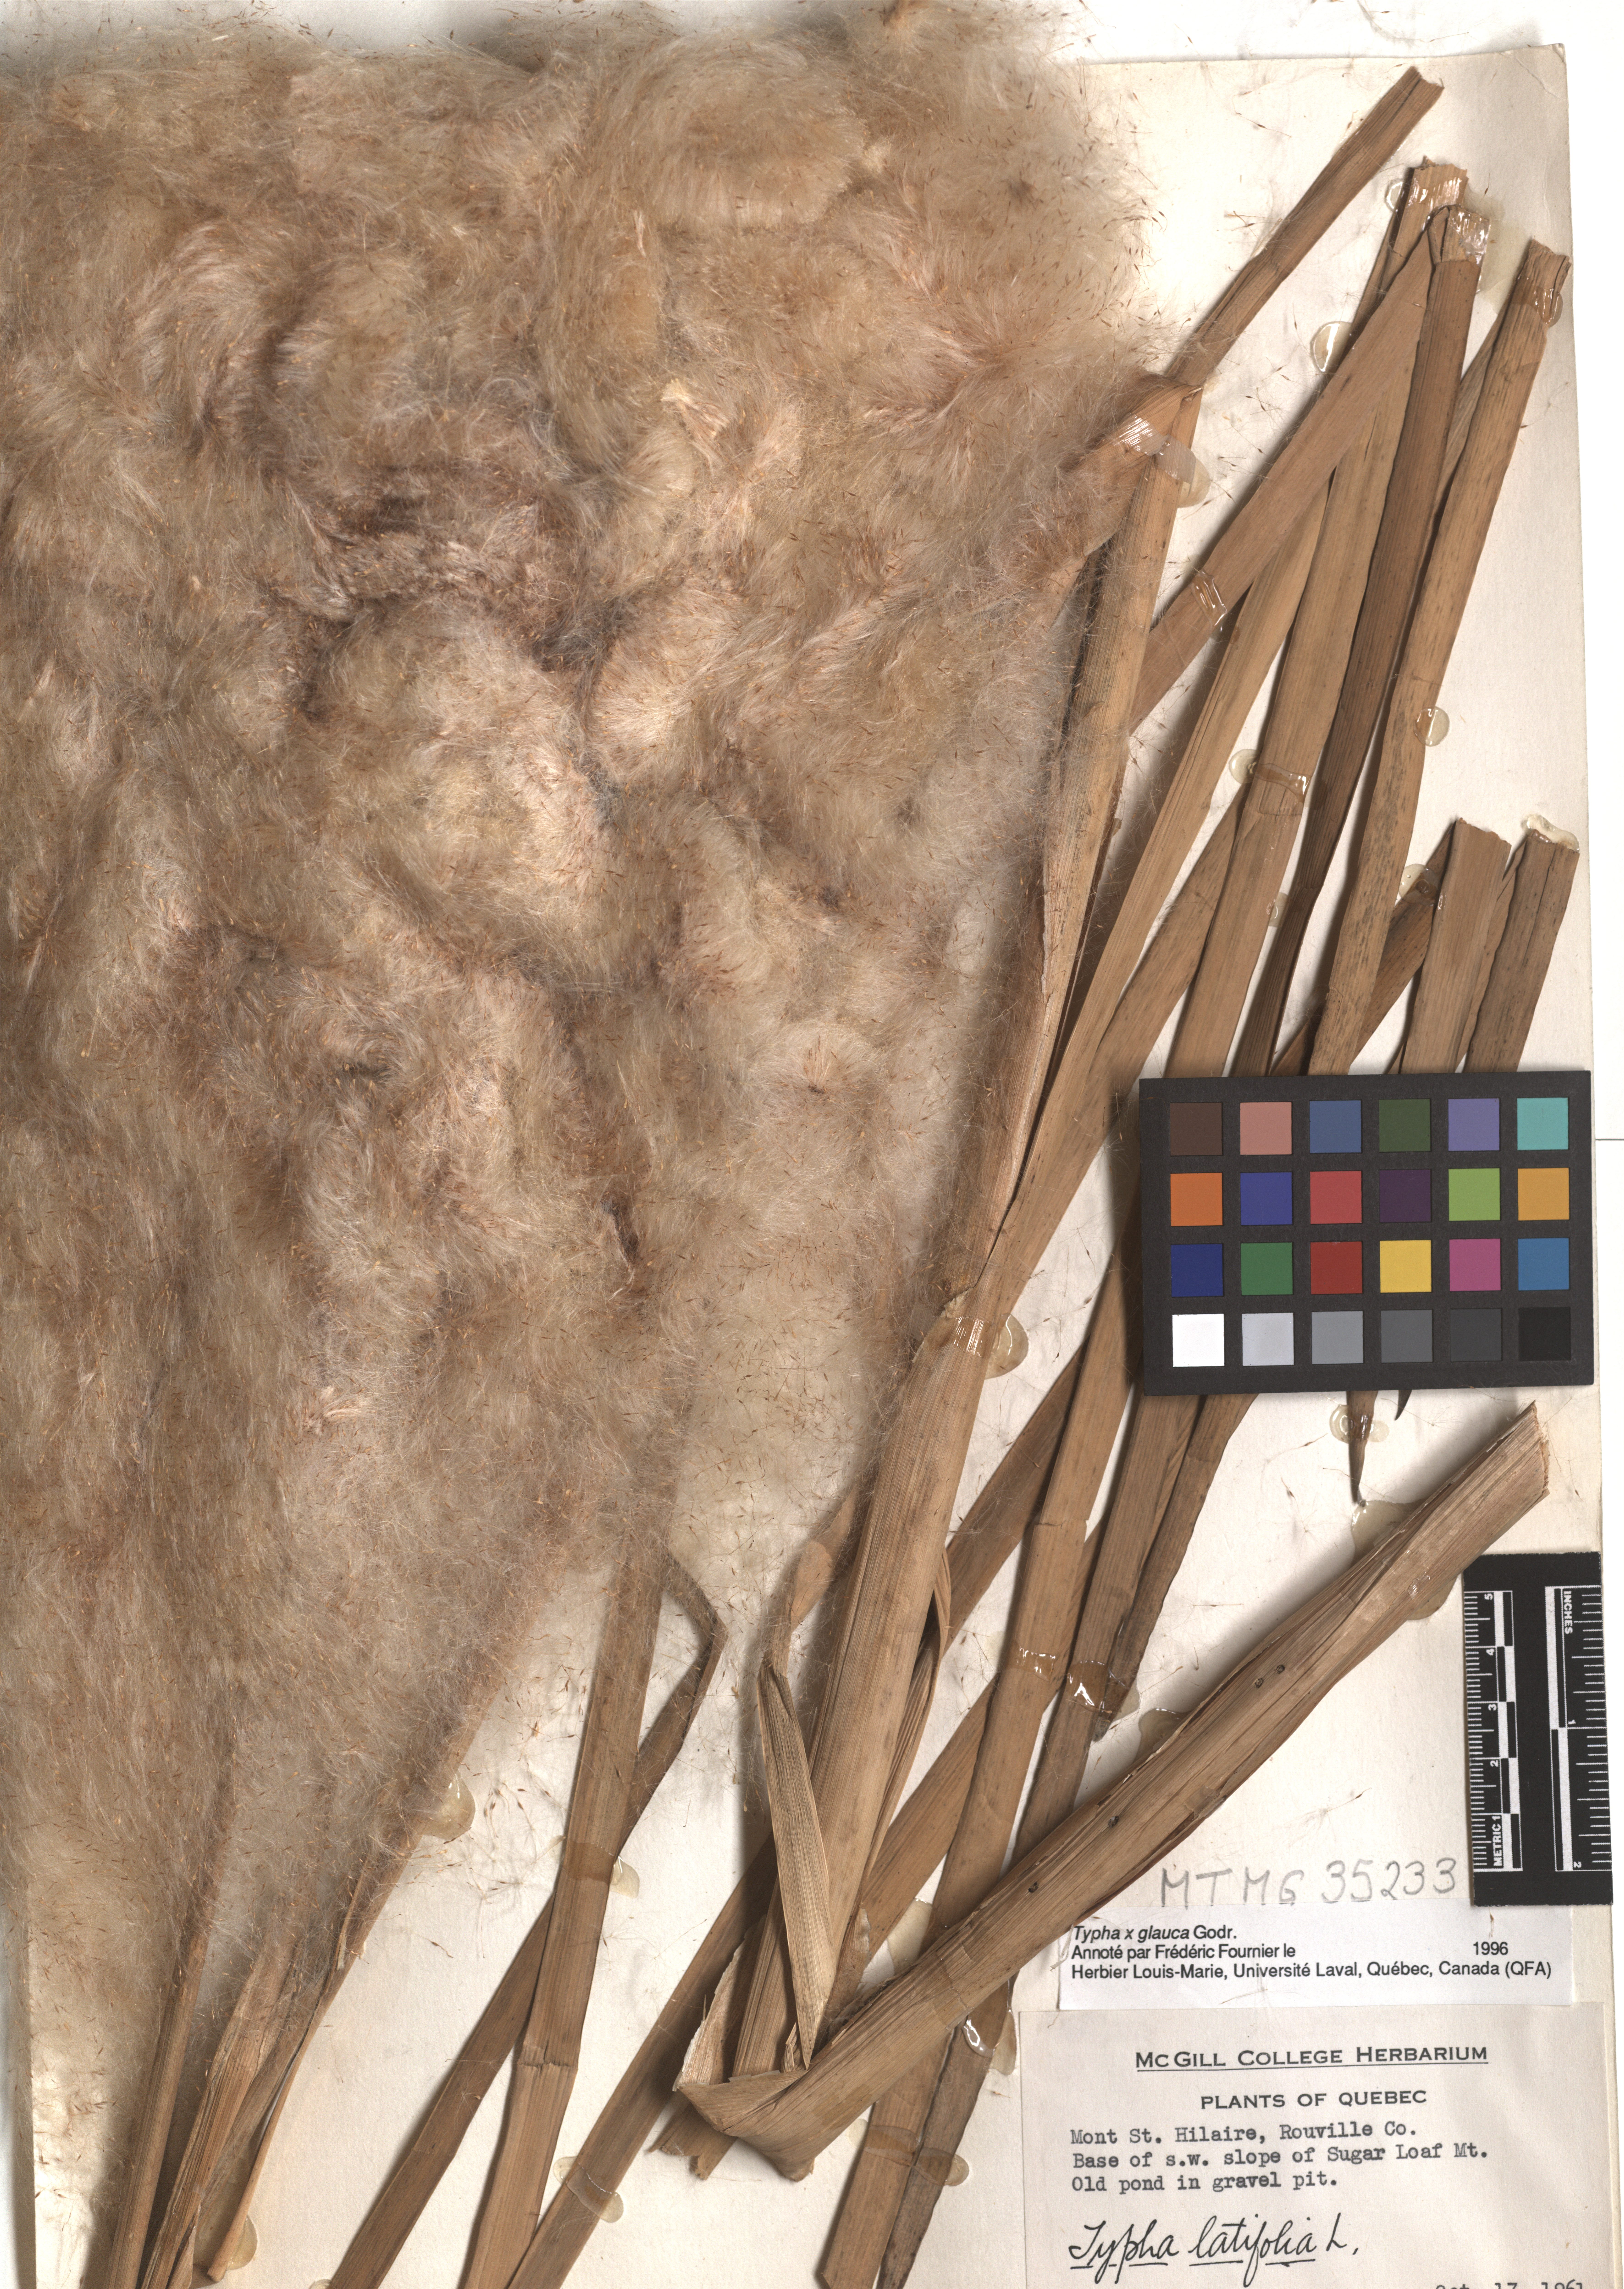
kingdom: Plantae
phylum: Tracheophyta
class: Liliopsida
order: Poales
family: Typhaceae
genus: Typha
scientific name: Typha glauca
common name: Blue cattail
